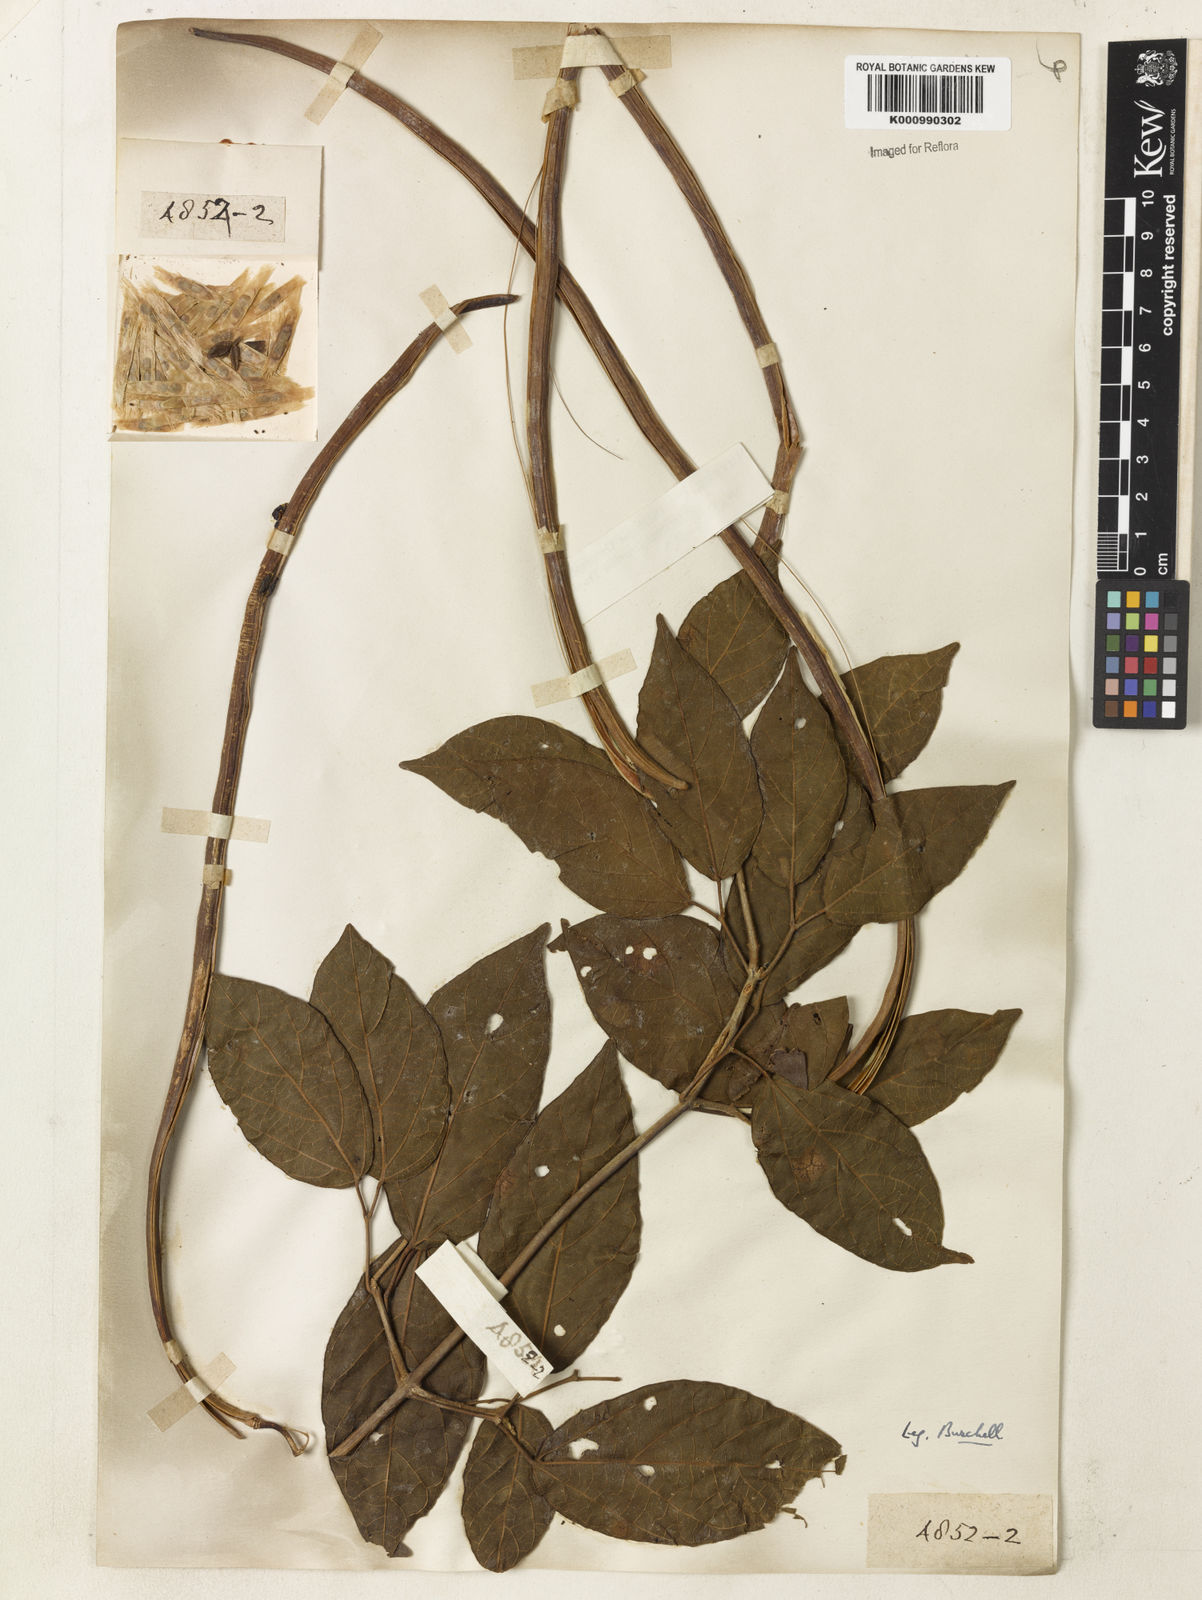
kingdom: Plantae
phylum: Tracheophyta
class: Magnoliopsida
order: Lamiales
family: Bignoniaceae
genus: Stizophyllum
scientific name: Stizophyllum perforatum
